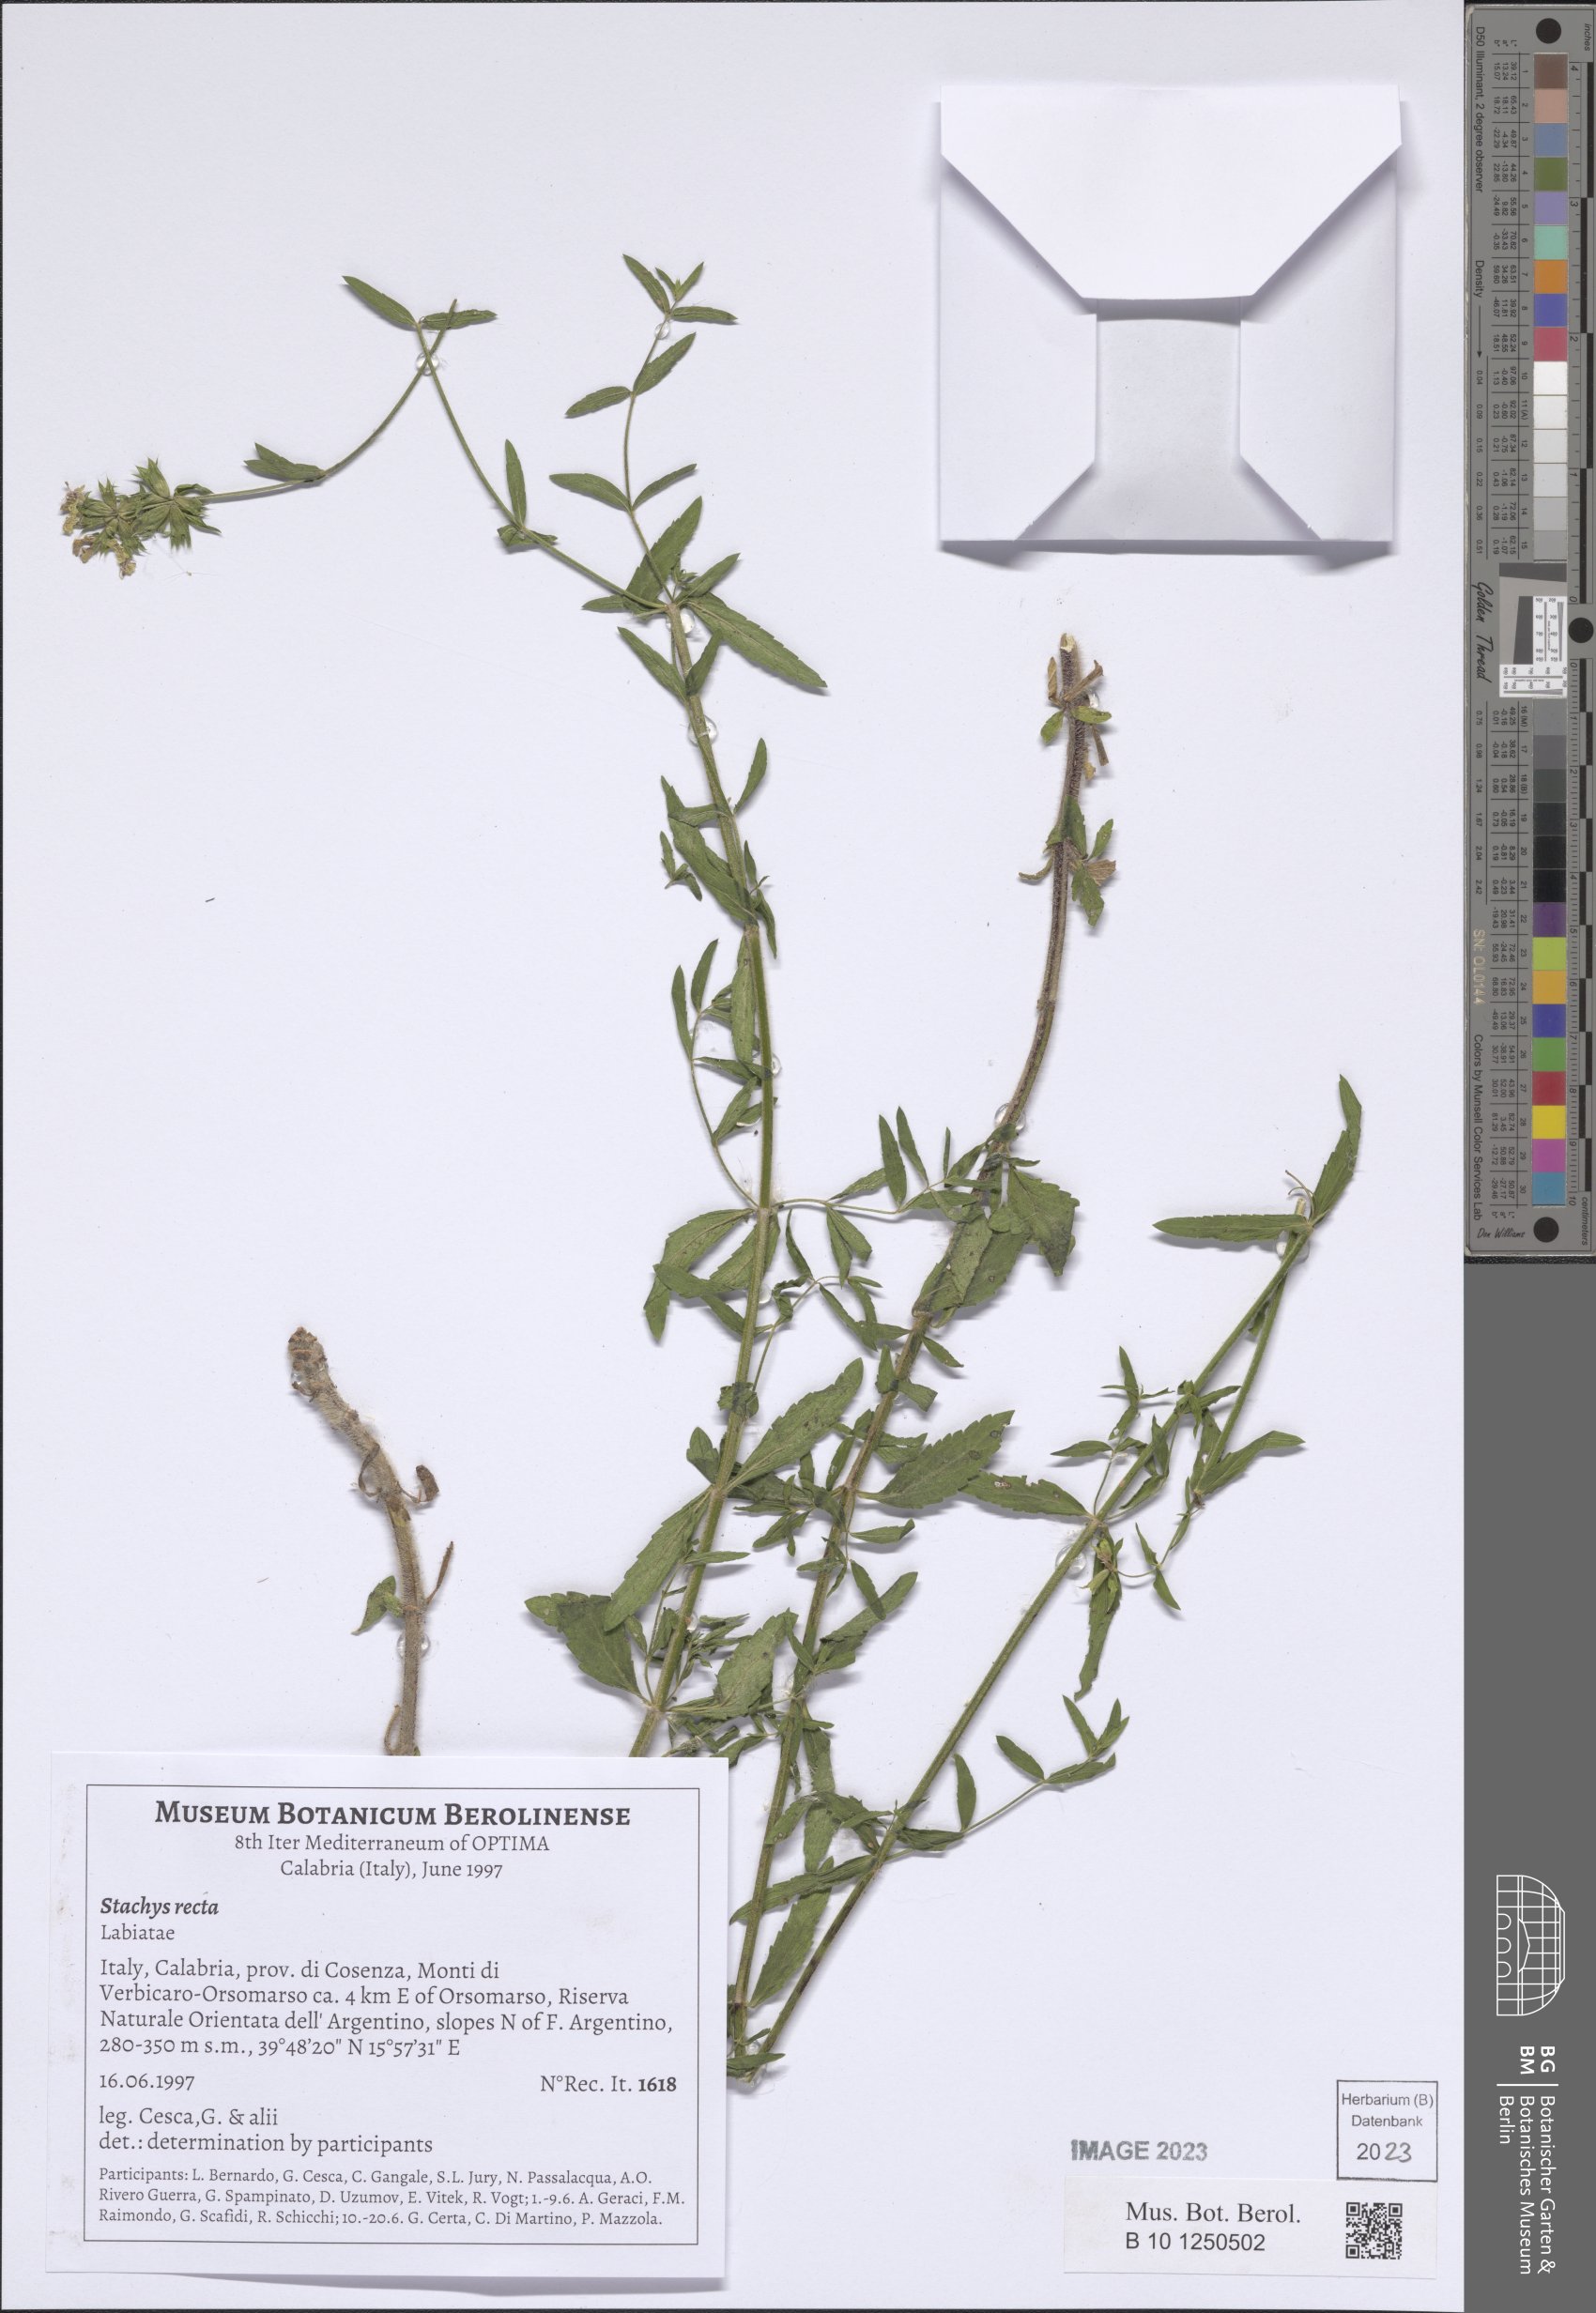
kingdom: Plantae
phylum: Tracheophyta
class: Magnoliopsida
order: Lamiales
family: Lamiaceae
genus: Stachys
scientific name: Stachys recta
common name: Perennial yellow-woundwort
